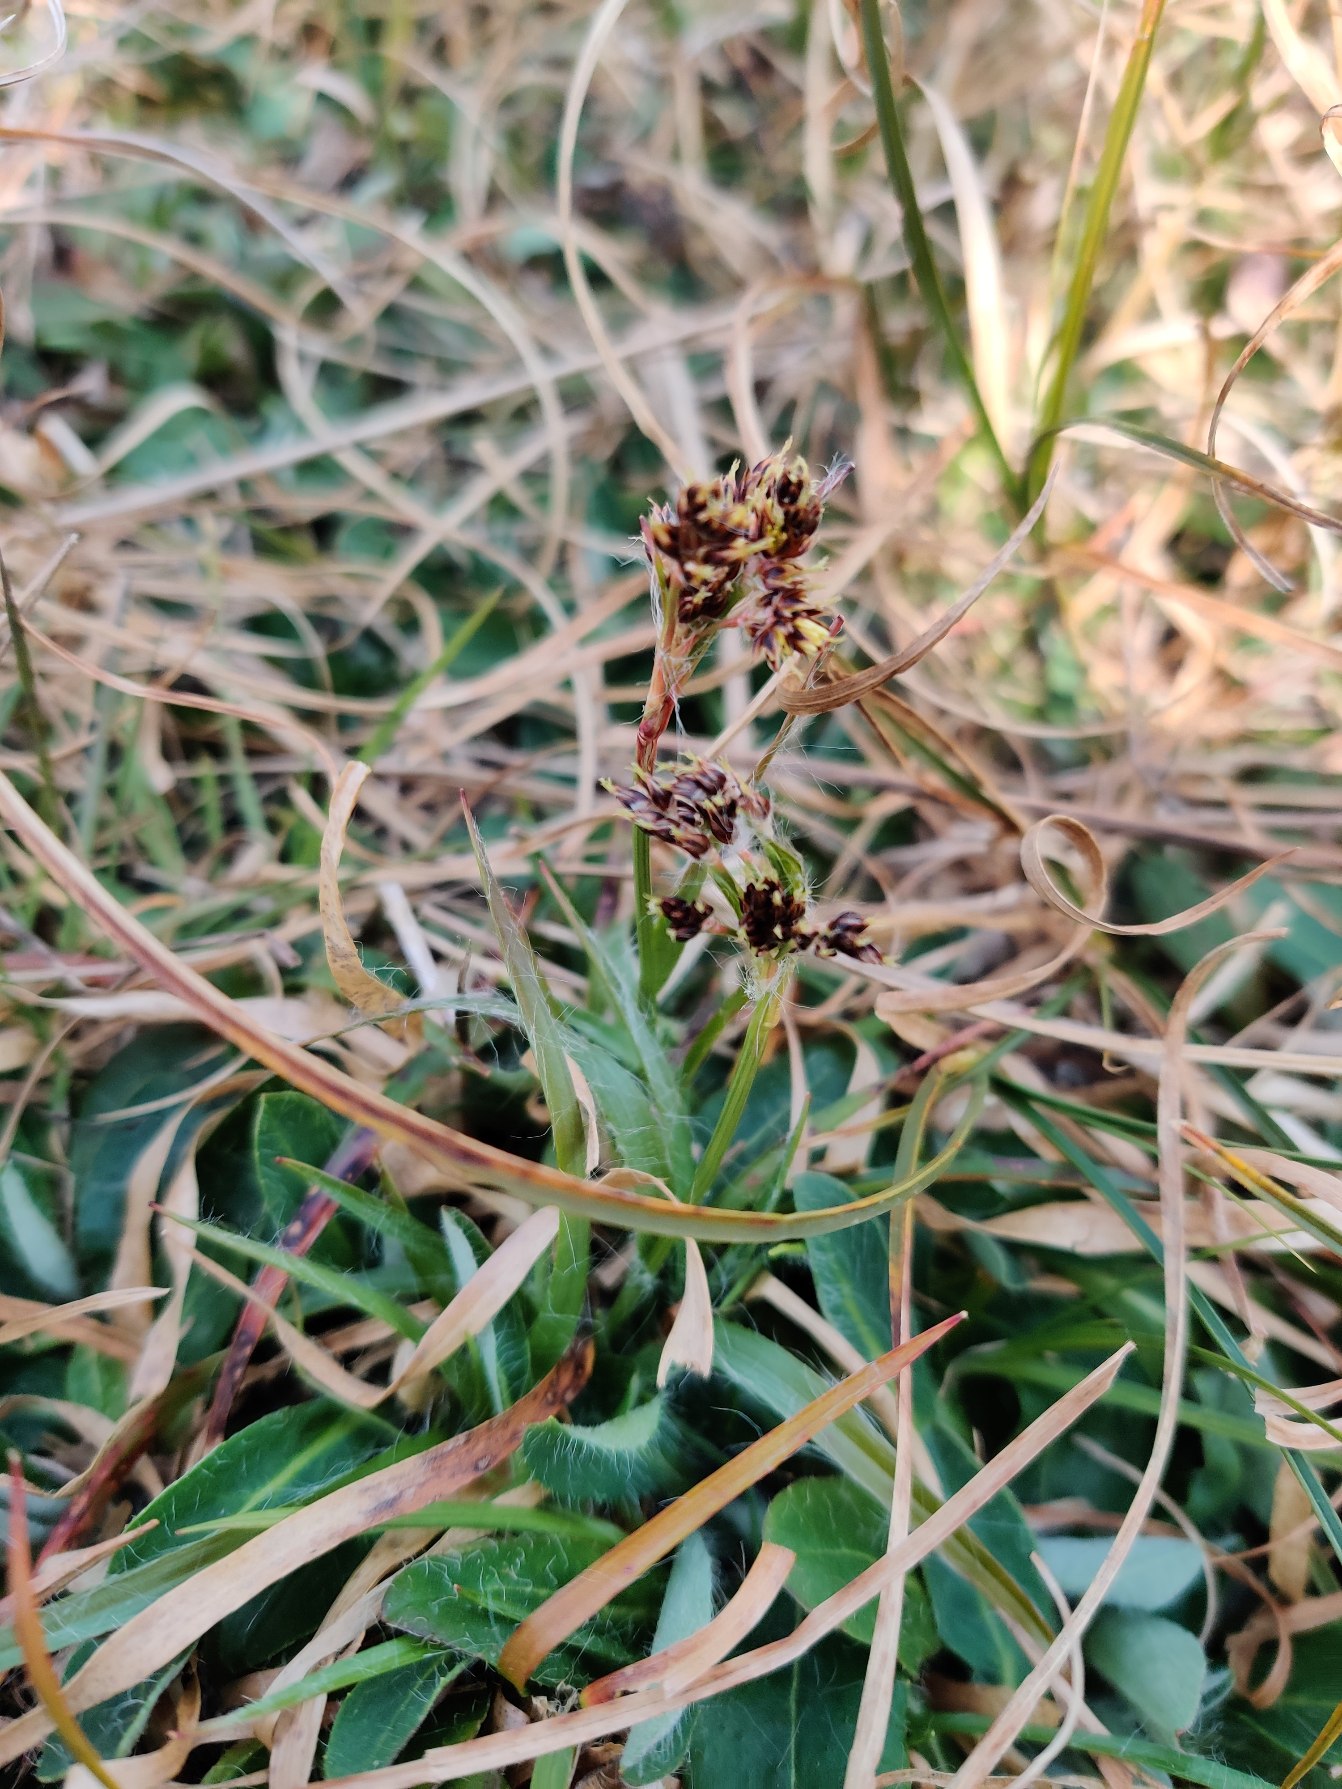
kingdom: Plantae
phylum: Tracheophyta
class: Liliopsida
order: Poales
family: Juncaceae
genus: Luzula
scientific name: Luzula campestris
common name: Mark-frytle
